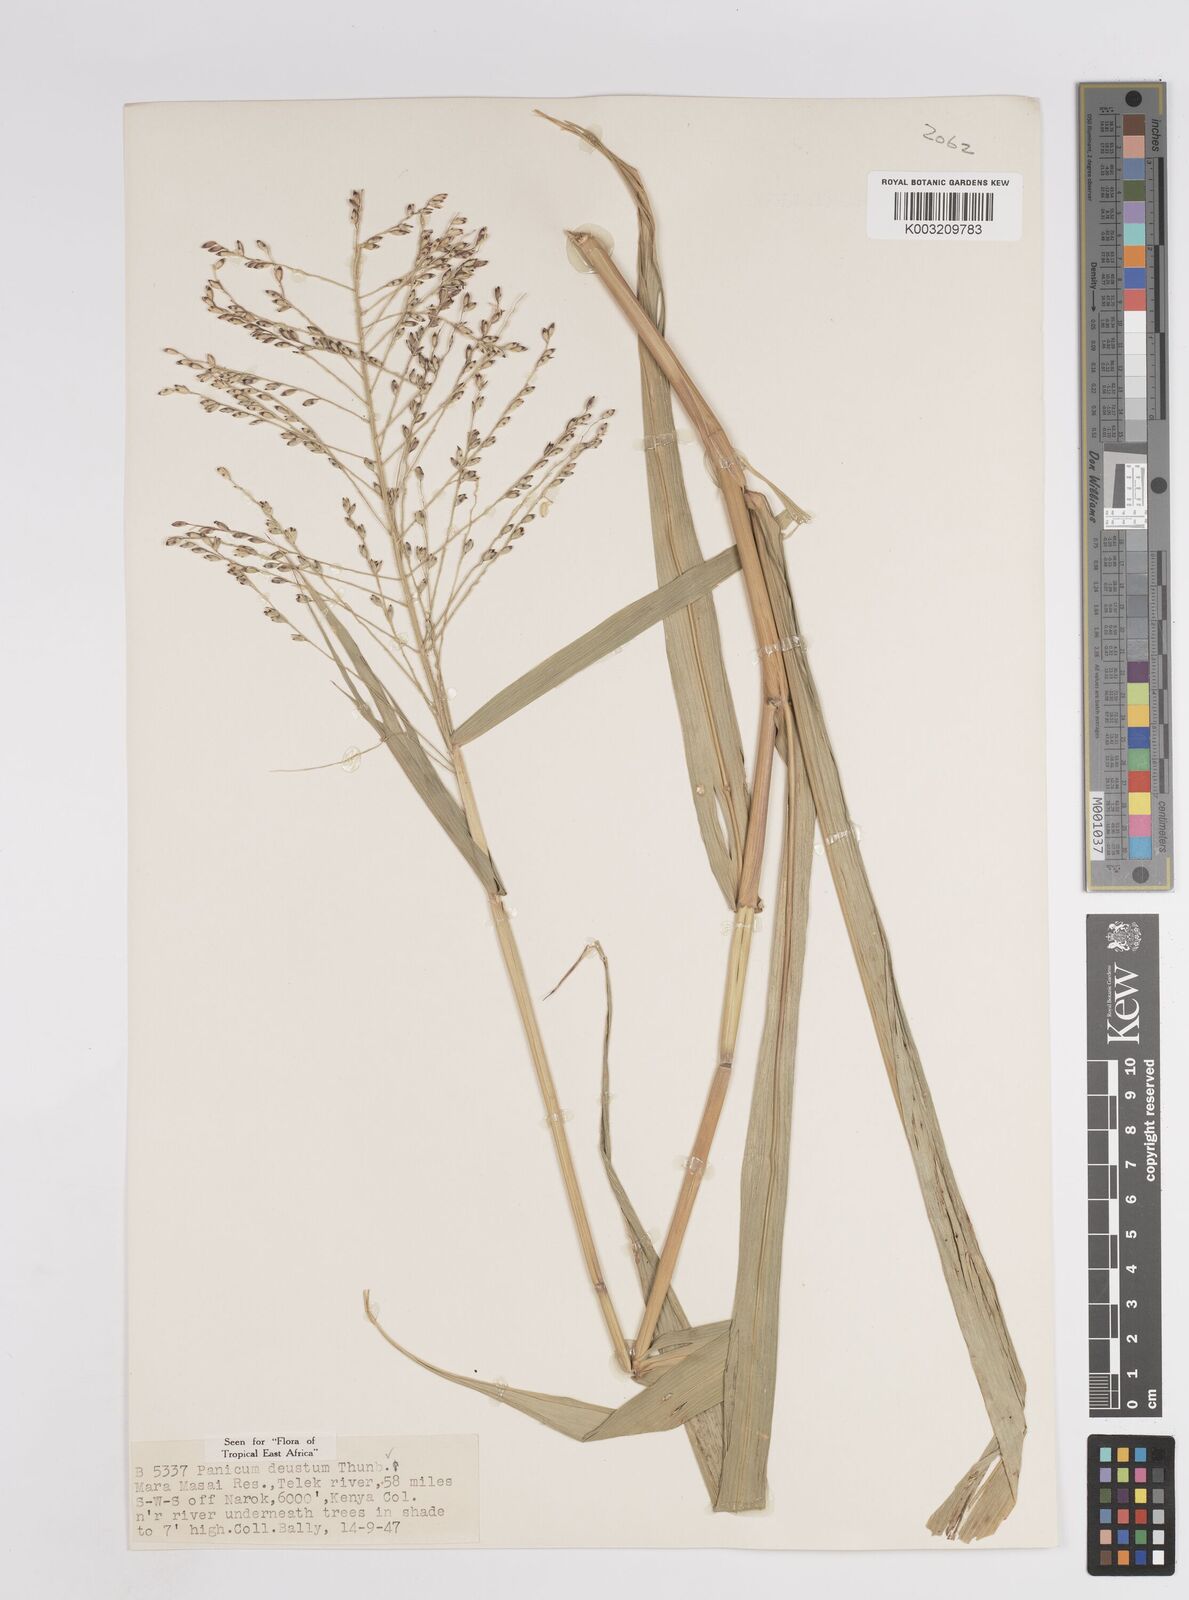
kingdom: Plantae
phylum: Tracheophyta
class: Liliopsida
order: Poales
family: Poaceae
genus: Panicum
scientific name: Panicum deustum
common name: Reed panicum
